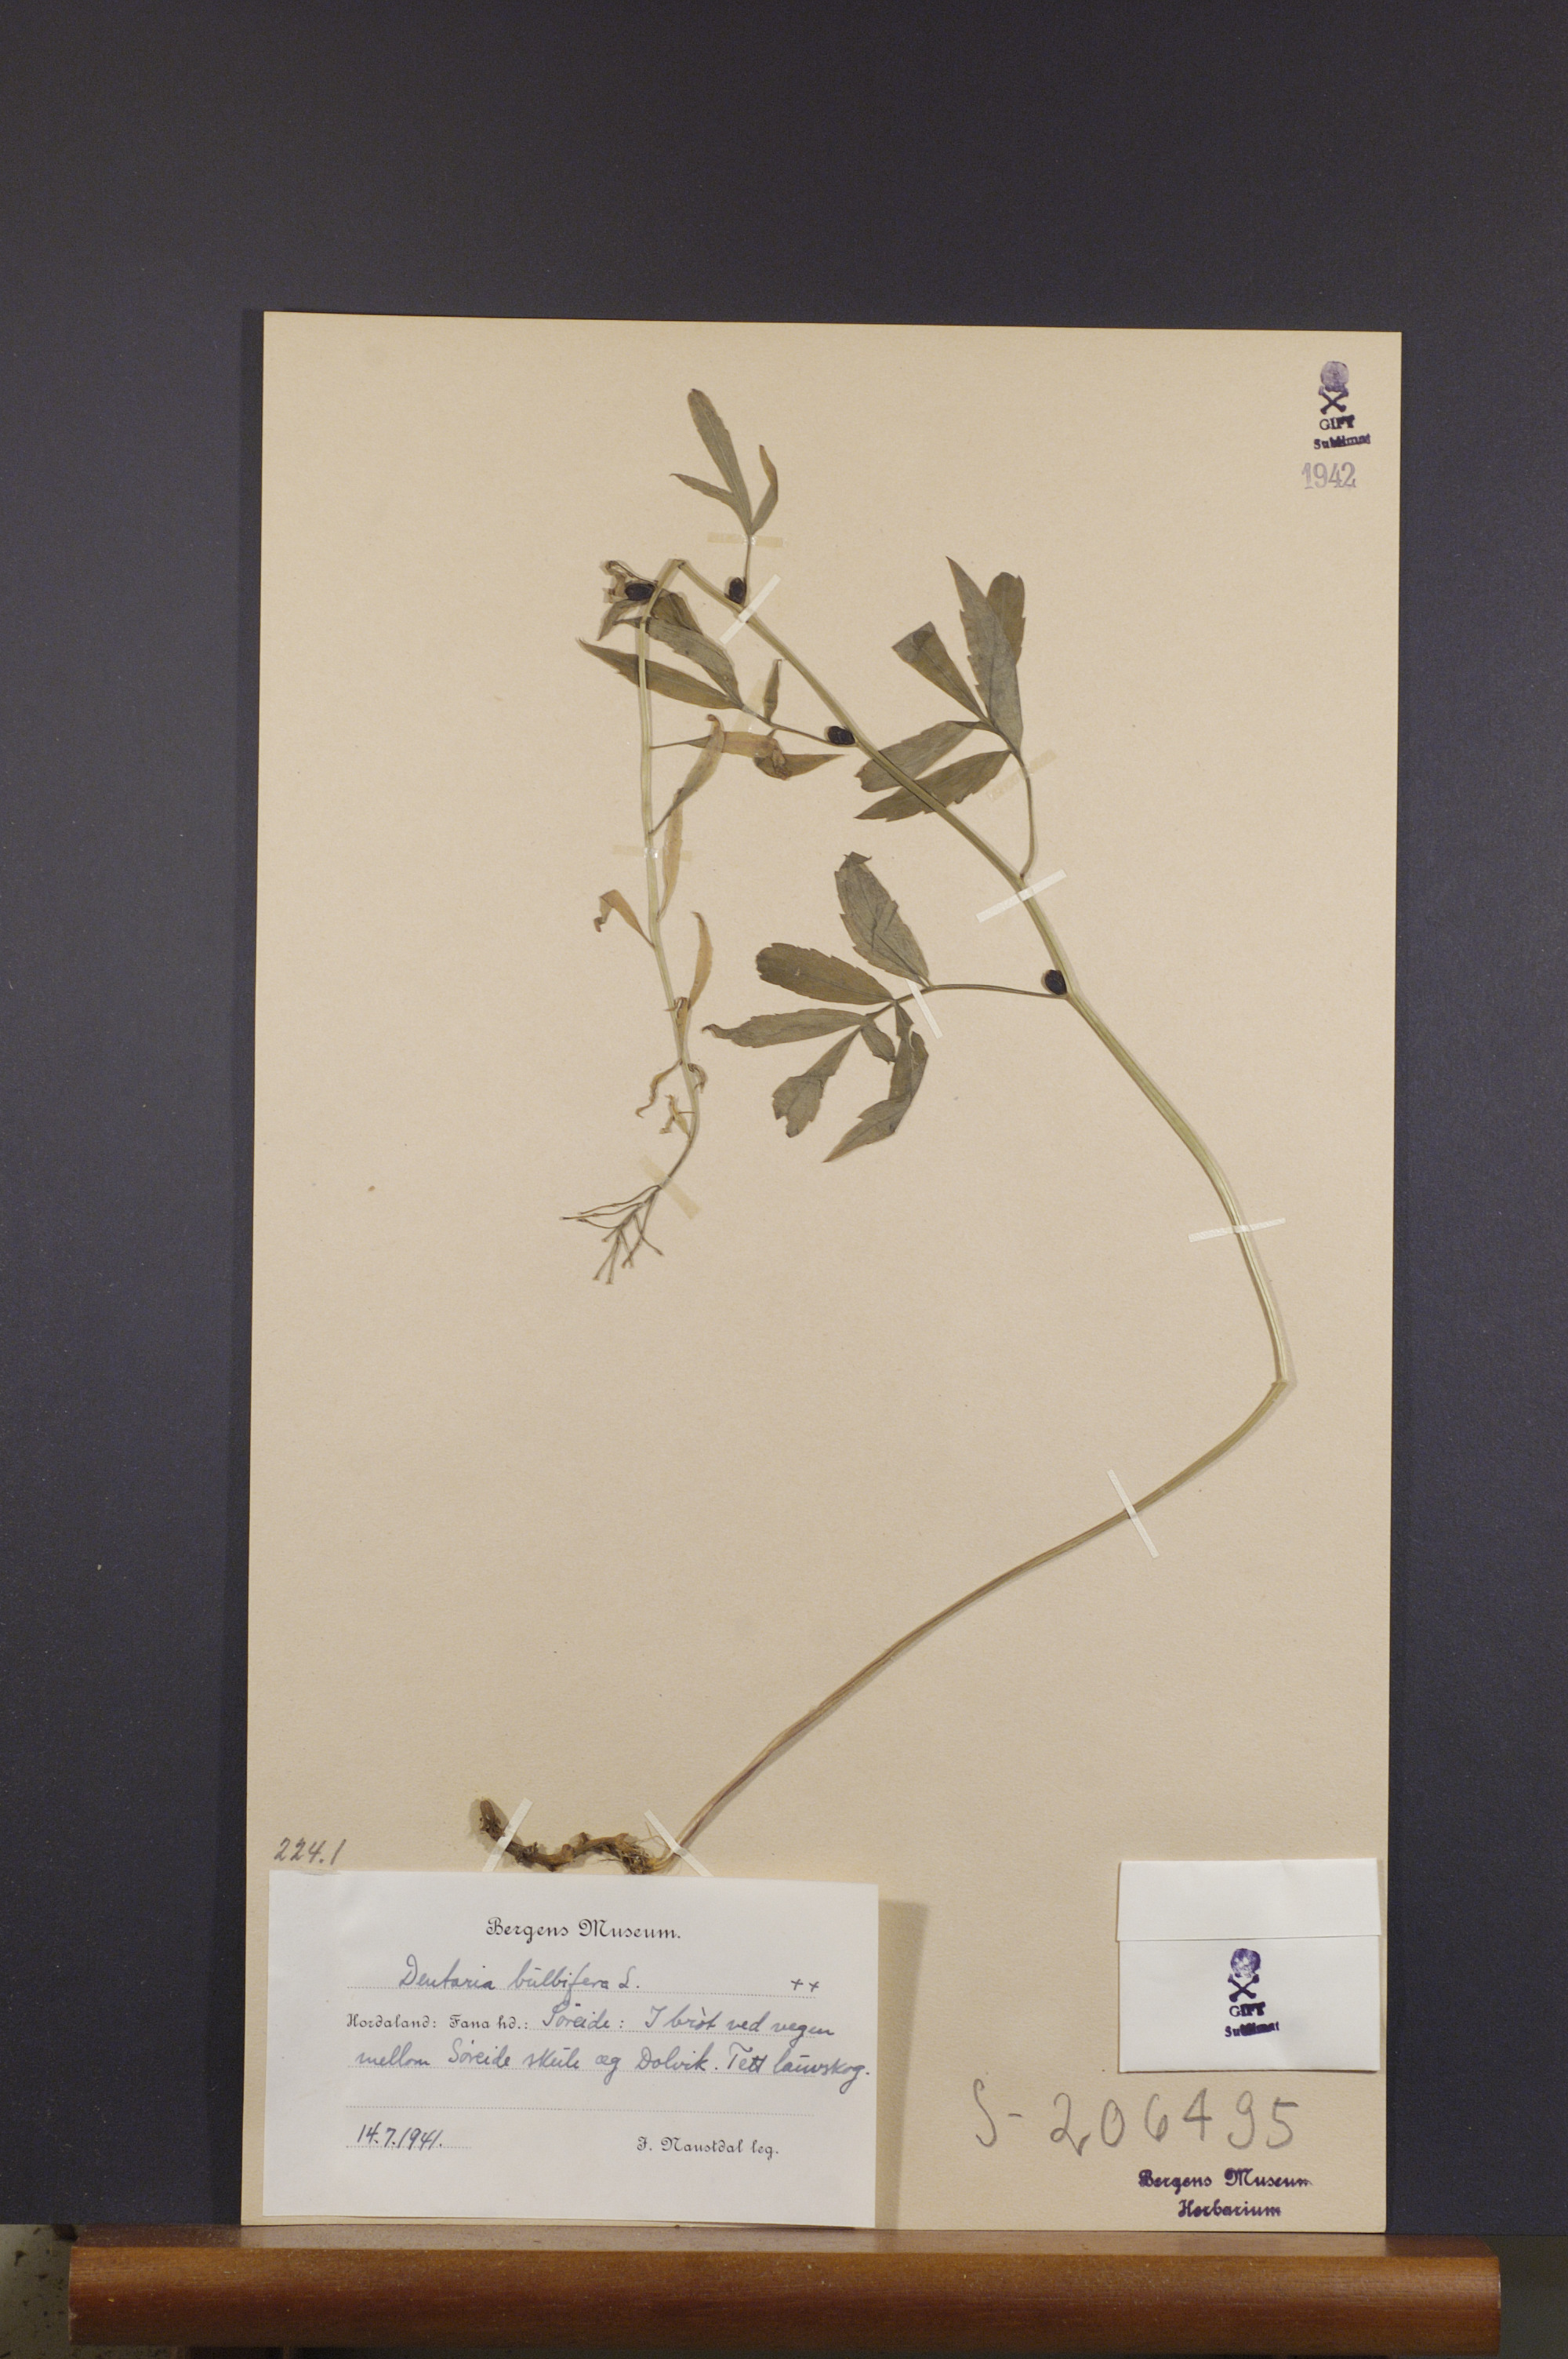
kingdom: Plantae
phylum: Tracheophyta
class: Magnoliopsida
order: Brassicales
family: Brassicaceae
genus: Cardamine
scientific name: Cardamine bulbifera
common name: Coralroot bittercress
